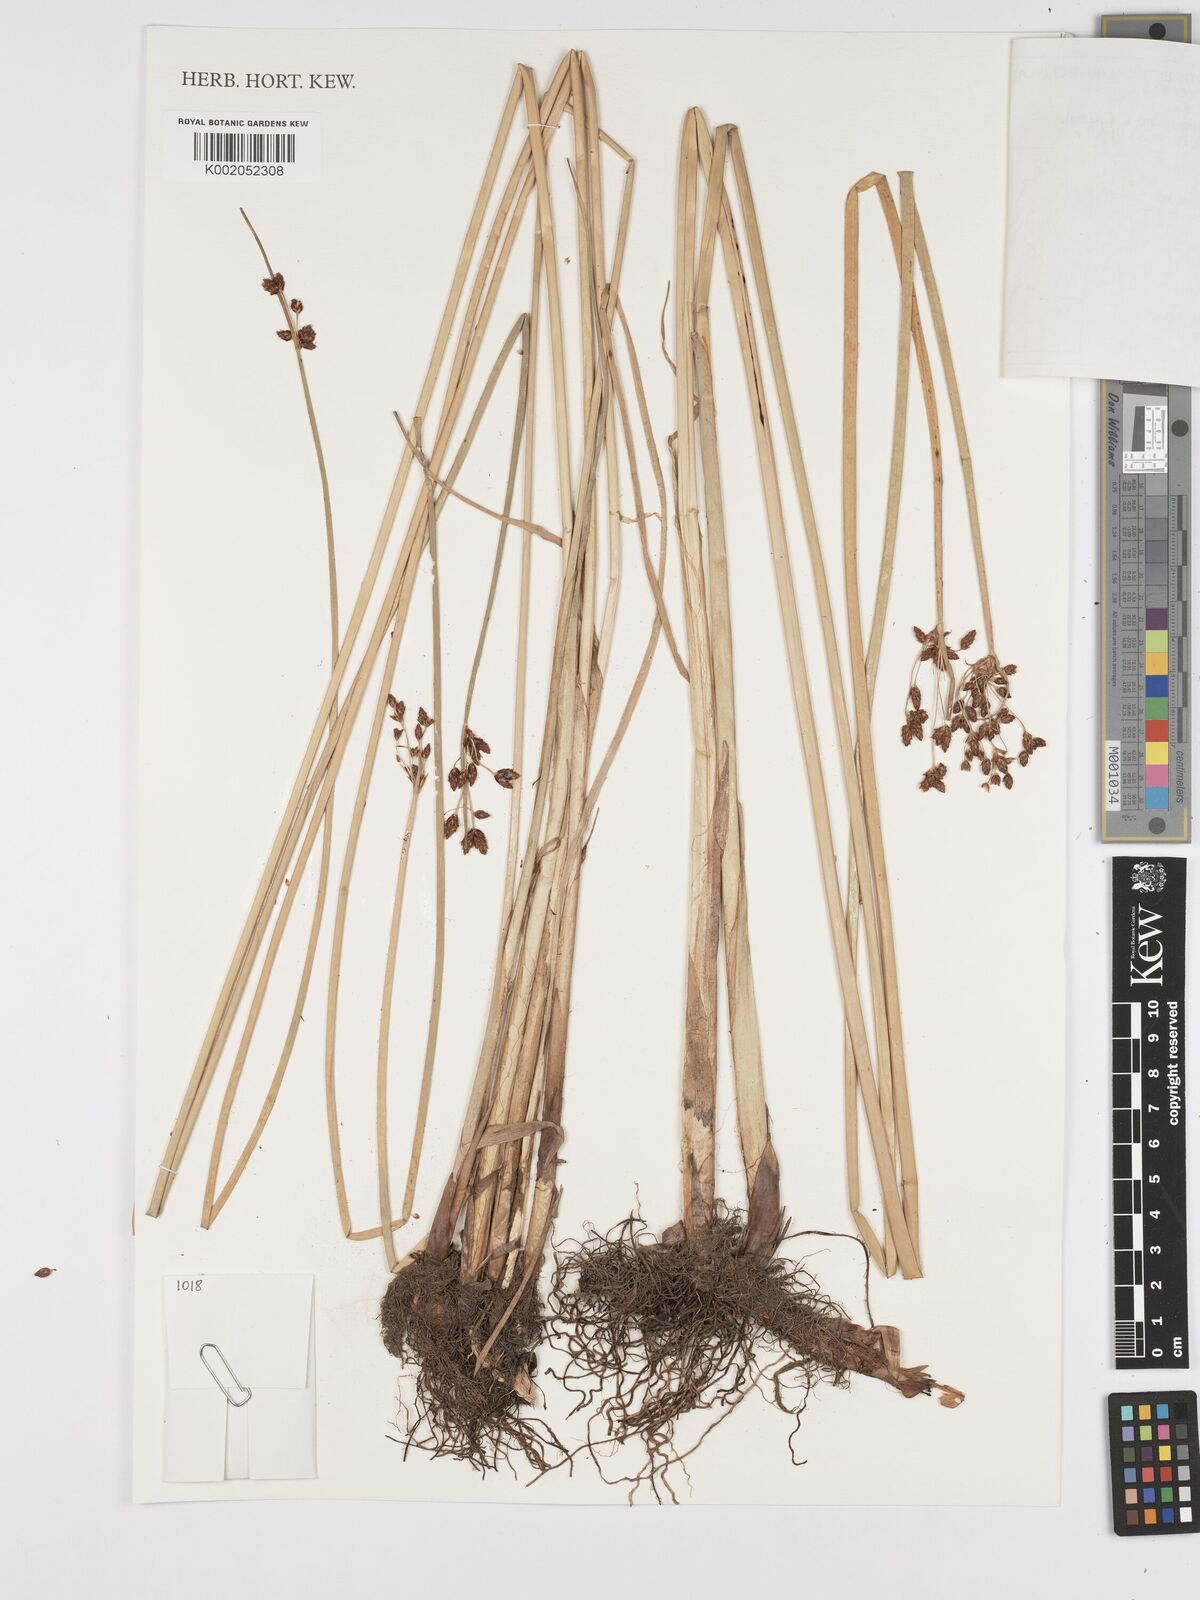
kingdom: Plantae
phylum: Tracheophyta
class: Liliopsida
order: Poales
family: Cyperaceae
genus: Schoenoplectus
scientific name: Schoenoplectus tabernaemontani
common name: Grey club-rush
